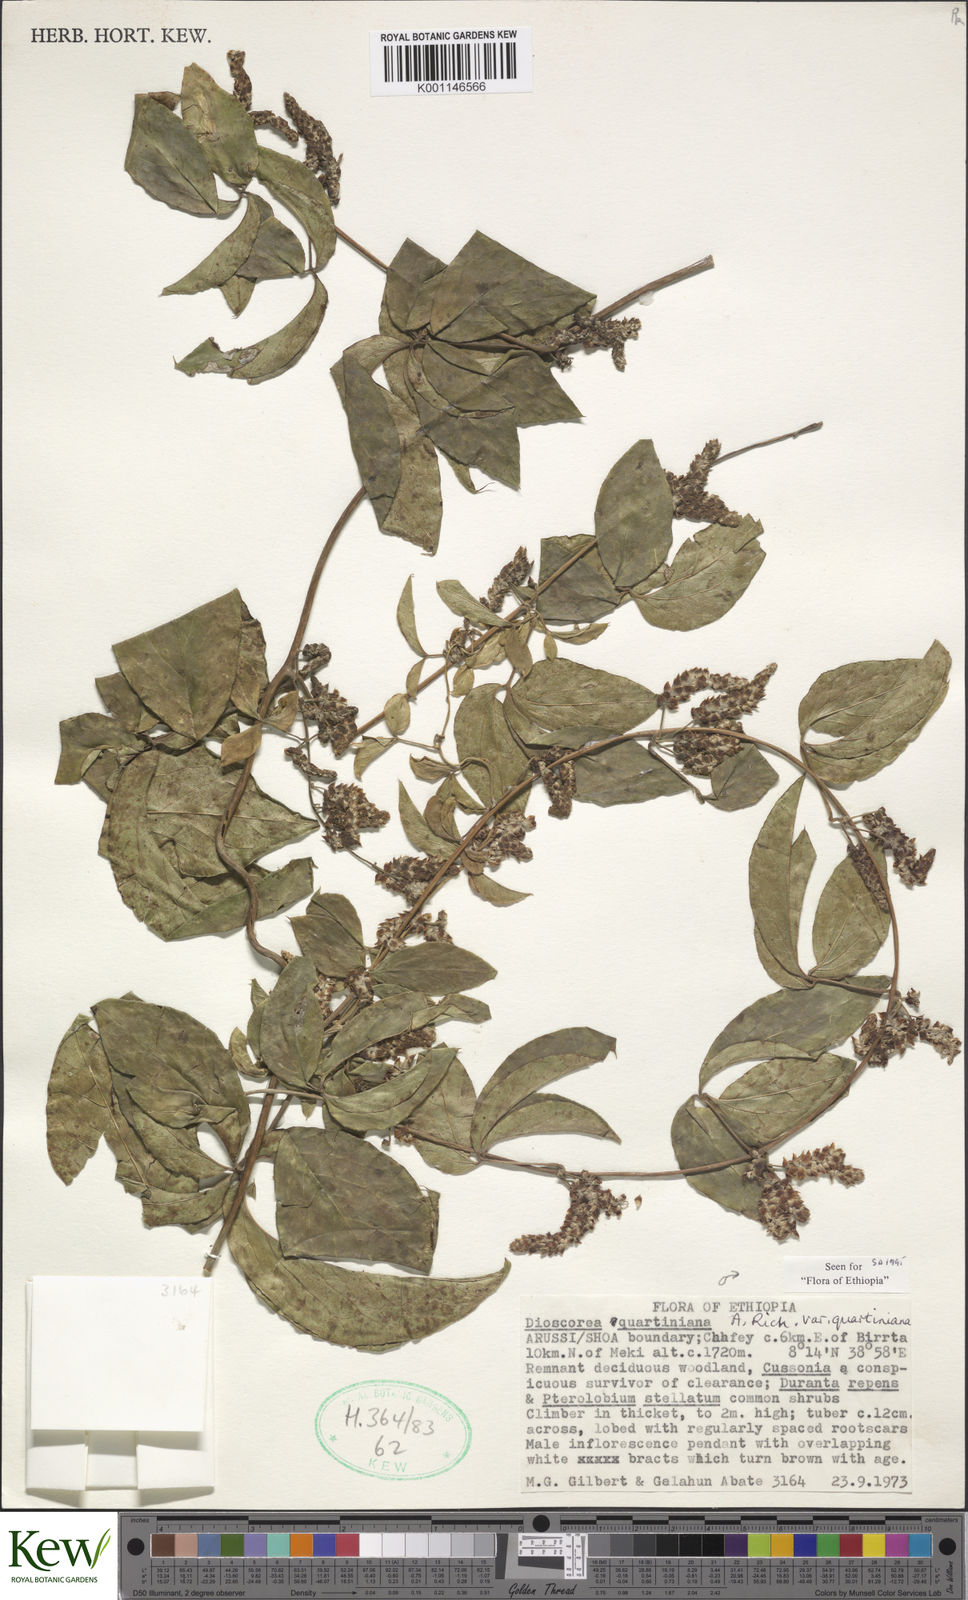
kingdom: Plantae
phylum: Tracheophyta
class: Liliopsida
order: Dioscoreales
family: Dioscoreaceae
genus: Dioscorea
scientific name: Dioscorea quartiniana
